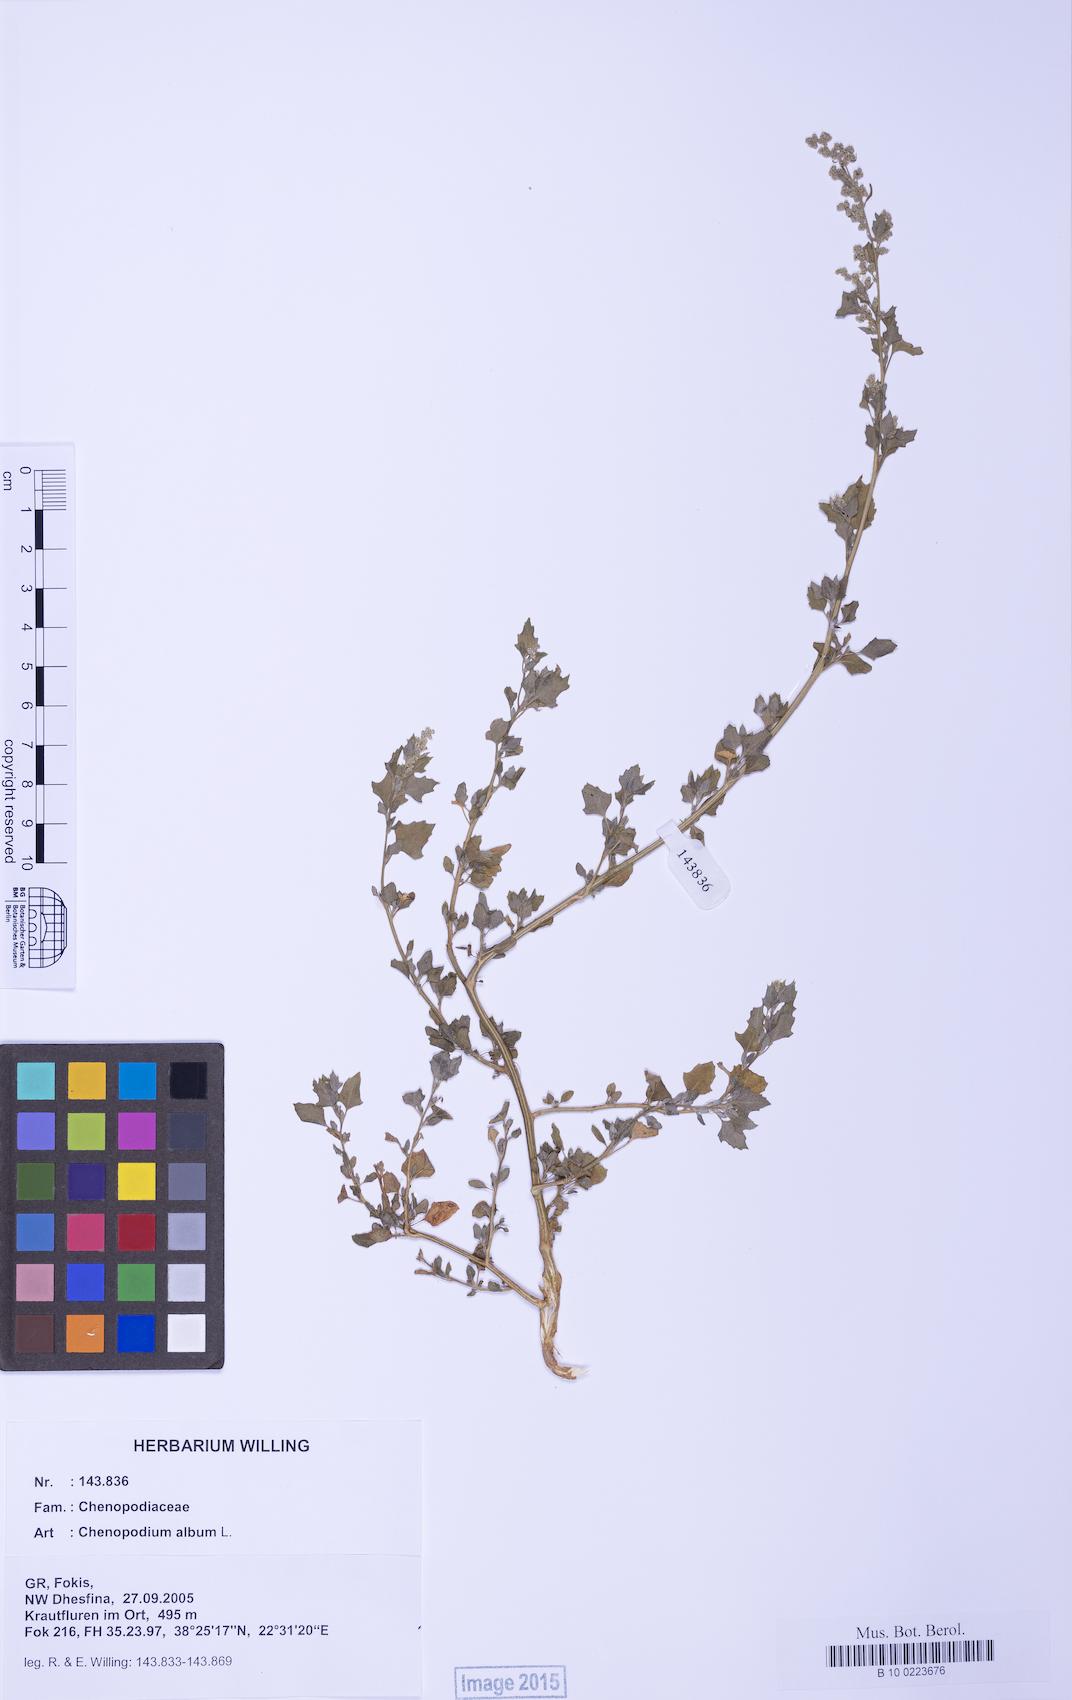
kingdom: Plantae
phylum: Tracheophyta
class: Magnoliopsida
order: Caryophyllales
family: Amaranthaceae
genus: Chenopodium
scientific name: Chenopodium album
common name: Fat-hen
